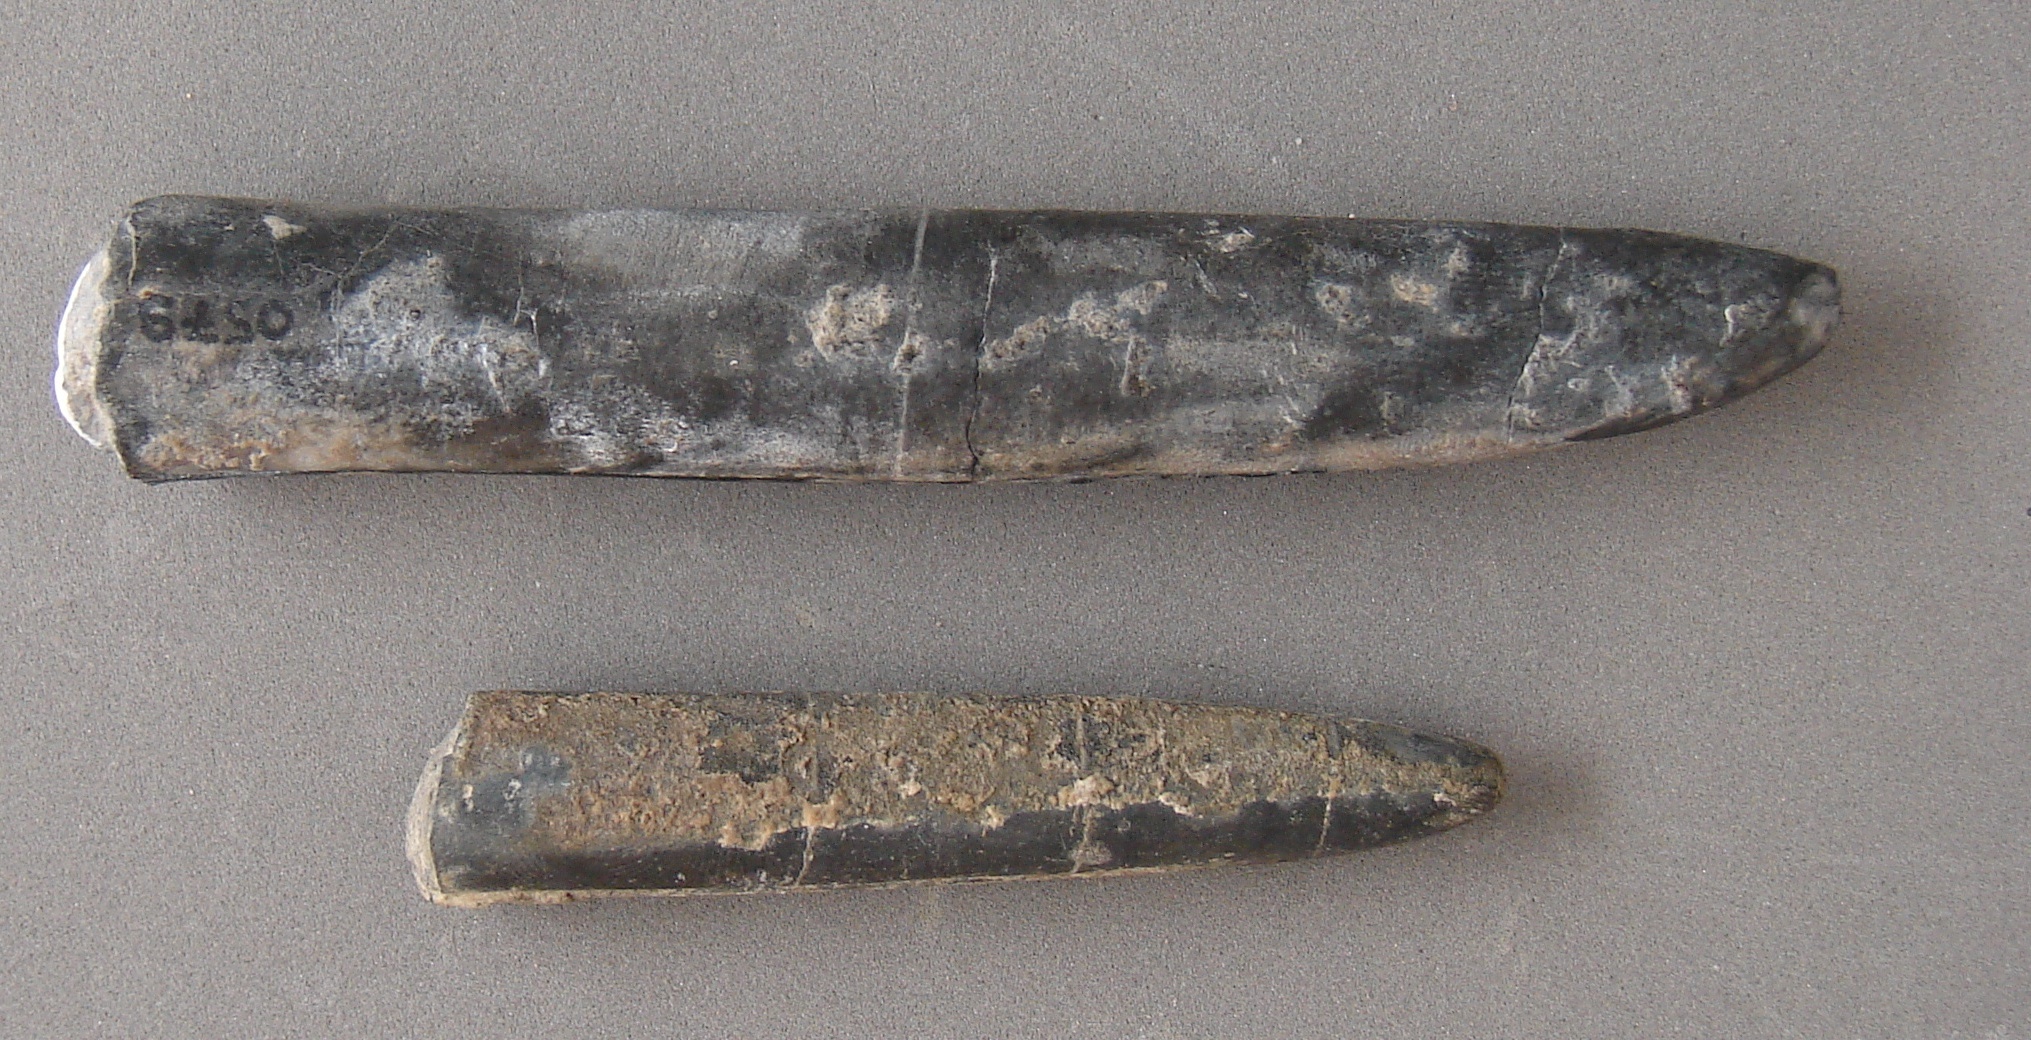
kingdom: Animalia
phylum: Mollusca
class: Cephalopoda
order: Belemnitida
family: Holcobelidae
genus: Calabribelus
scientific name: Calabribelus
